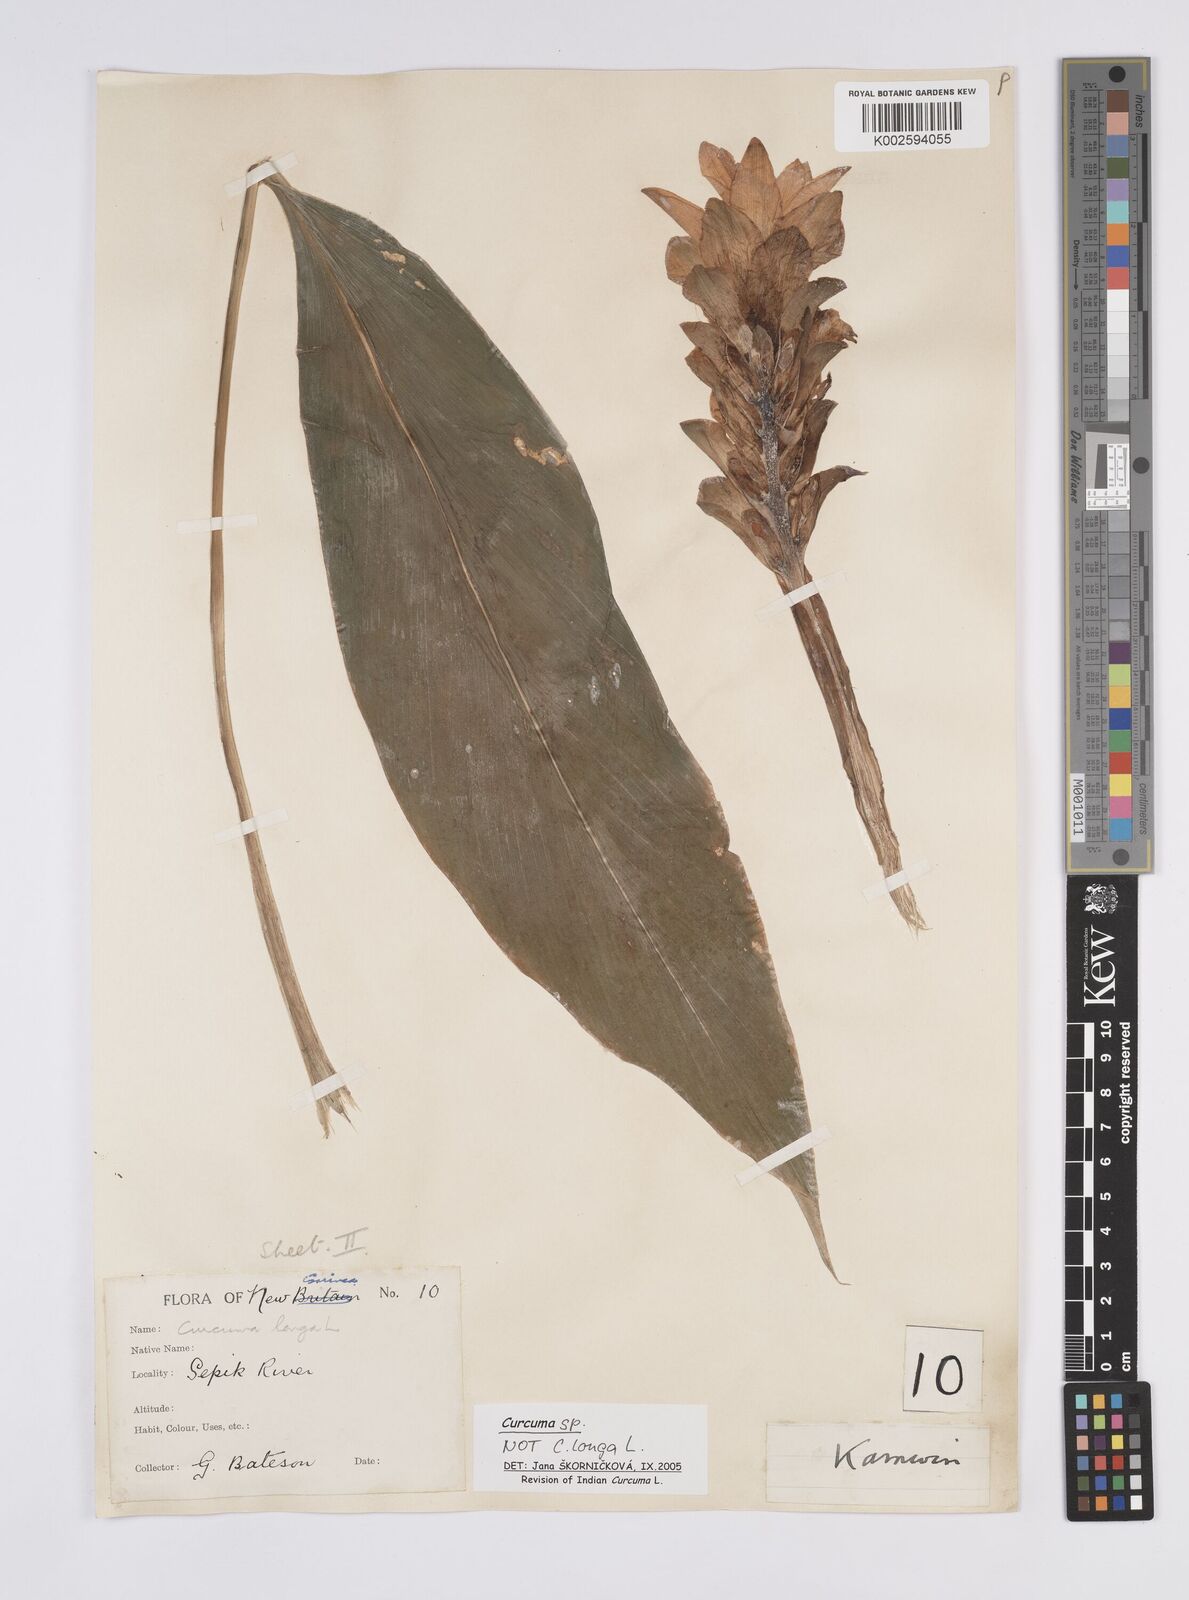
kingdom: Plantae
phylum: Tracheophyta
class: Liliopsida
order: Zingiberales
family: Zingiberaceae
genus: Curcuma
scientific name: Curcuma
